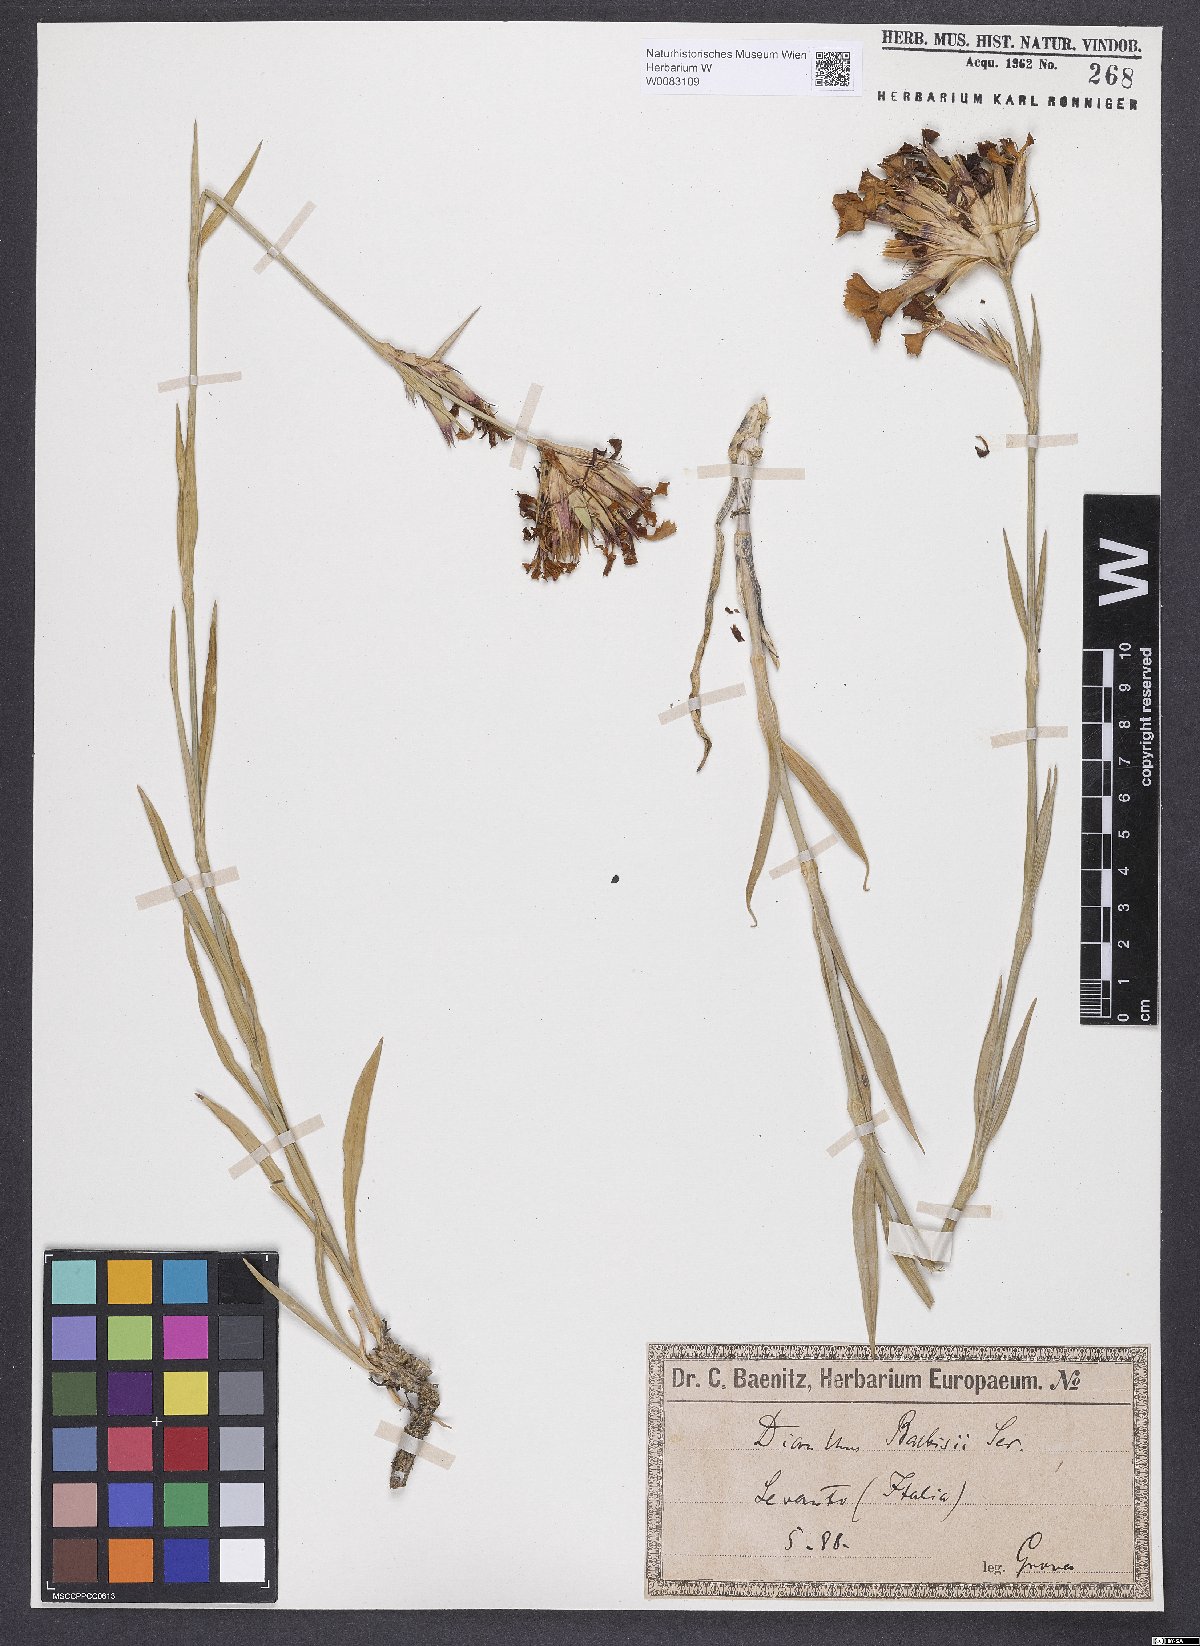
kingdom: Plantae
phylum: Tracheophyta
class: Magnoliopsida
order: Caryophyllales
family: Caryophyllaceae
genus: Dianthus
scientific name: Dianthus crassipes
